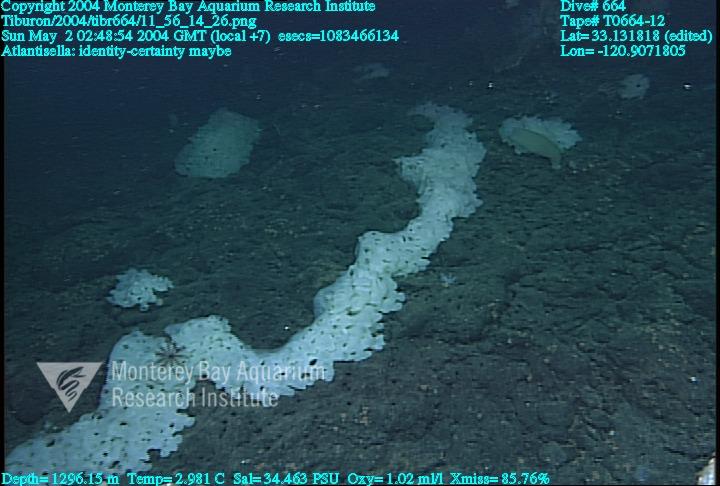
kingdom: Animalia
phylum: Porifera
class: Hexactinellida
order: Lyssacinosida
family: Euplectellidae
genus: Atlantisella
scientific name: Atlantisella
